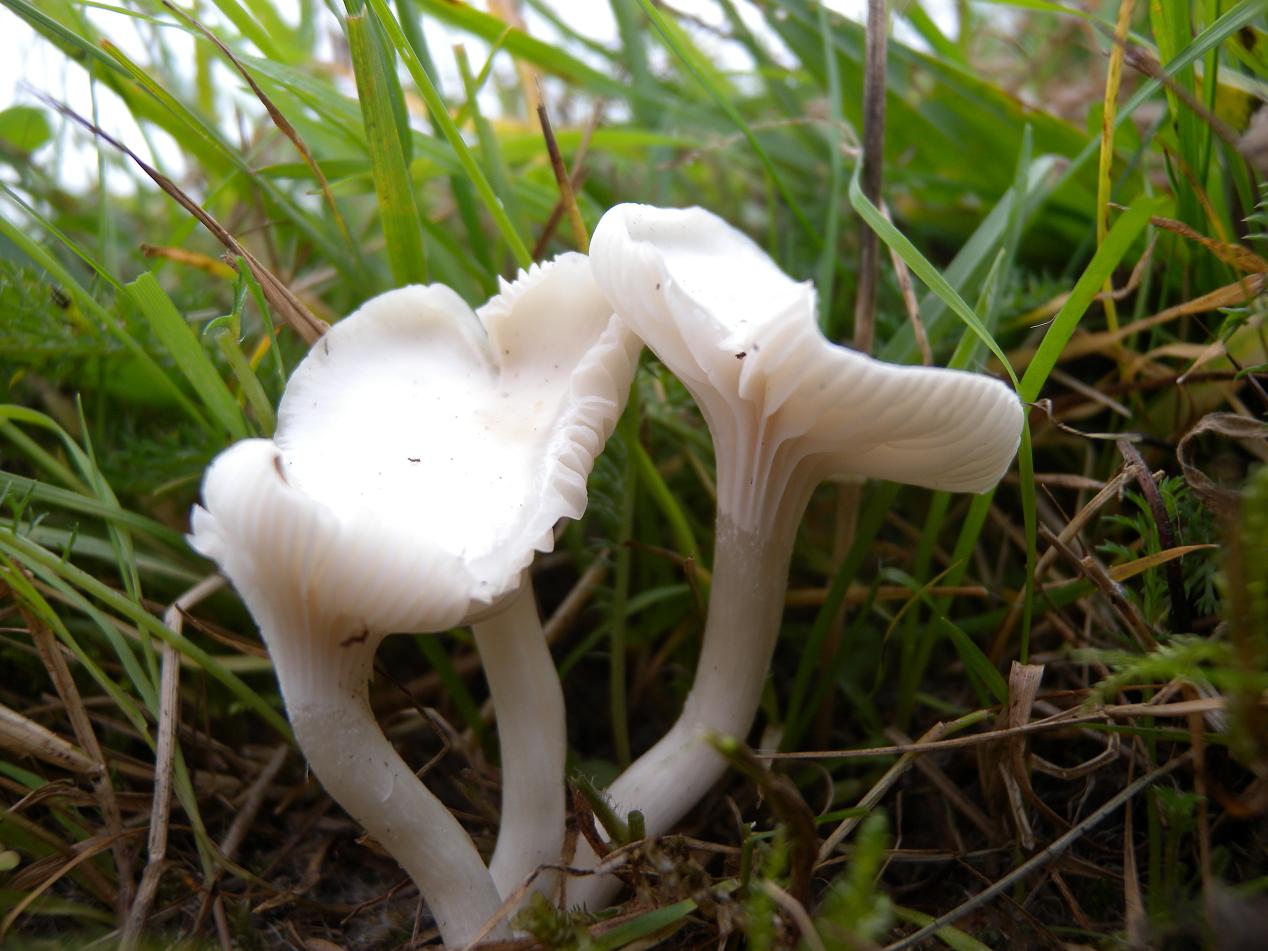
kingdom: Fungi
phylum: Basidiomycota
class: Agaricomycetes
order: Agaricales
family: Hygrophoraceae
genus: Cuphophyllus
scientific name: Cuphophyllus virgineus
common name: snehvid vokshat
